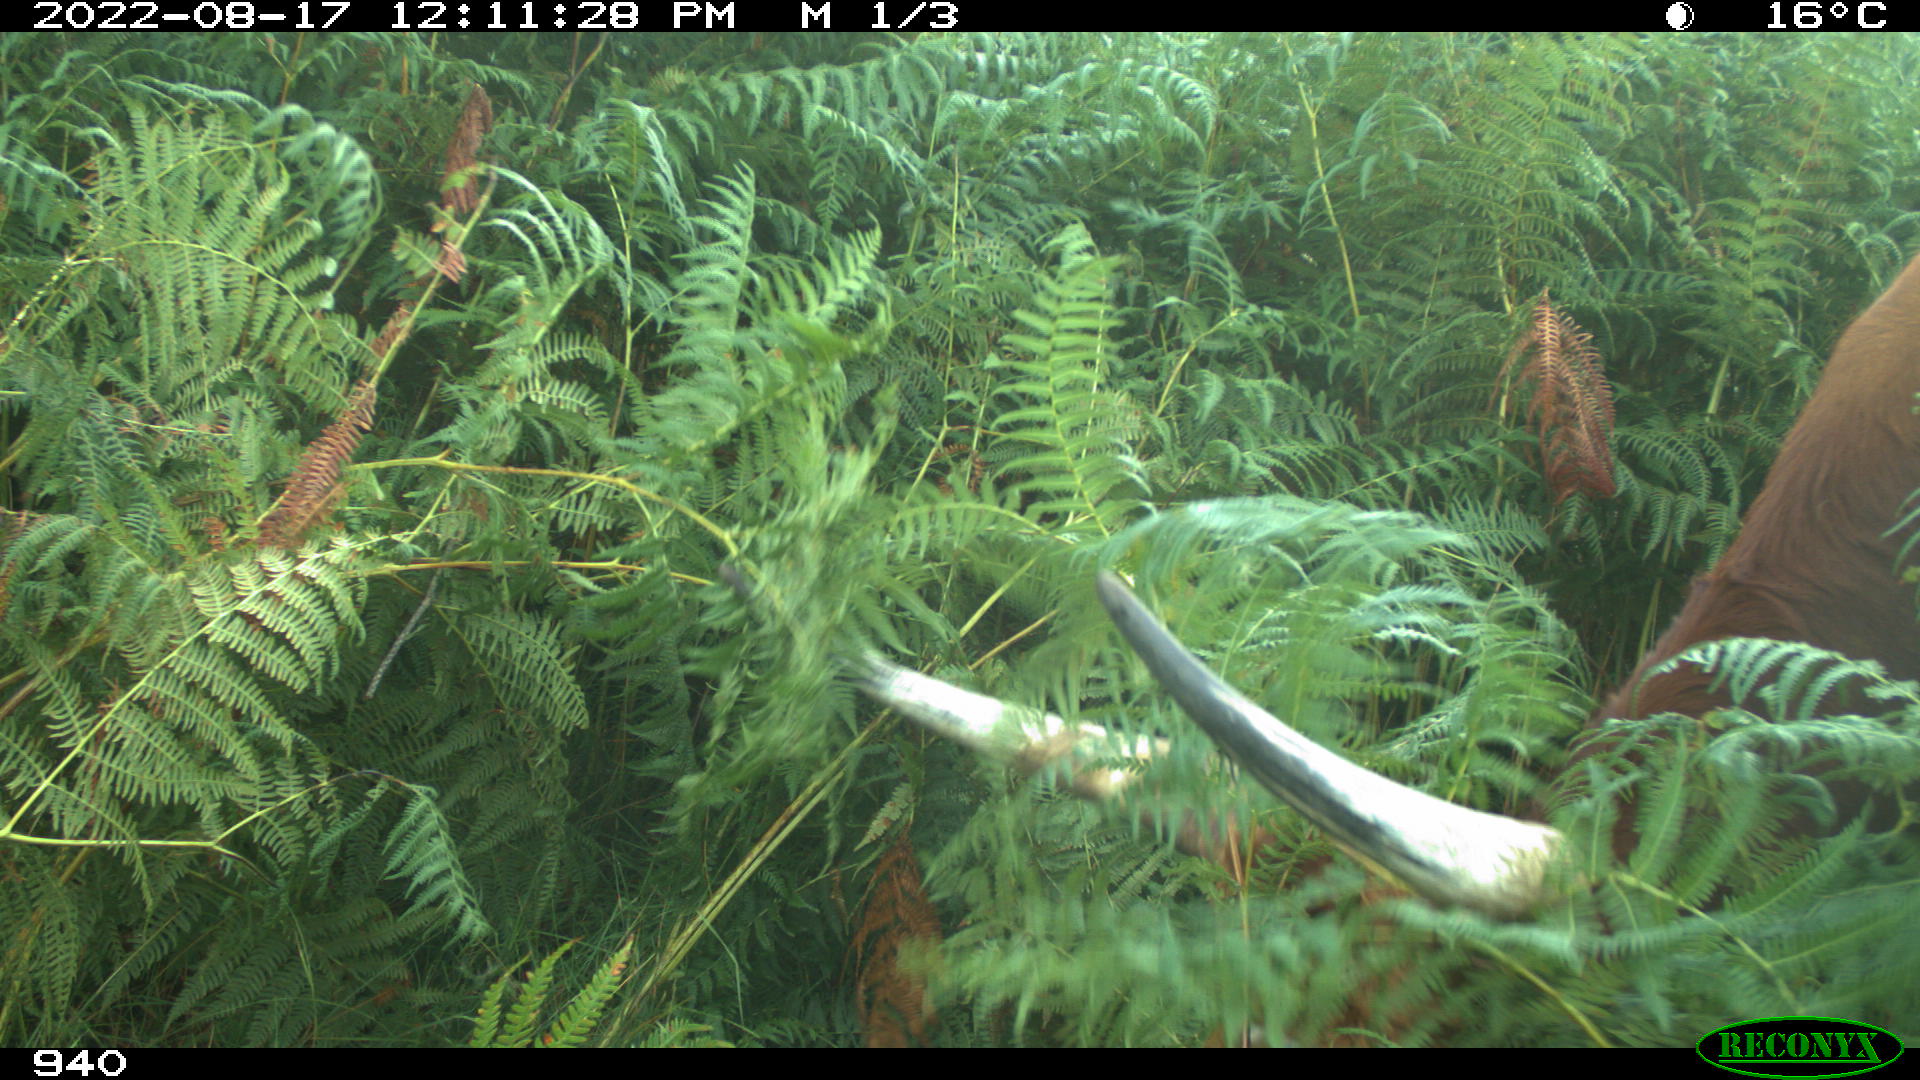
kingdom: Animalia
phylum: Chordata
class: Mammalia
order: Artiodactyla
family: Bovidae
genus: Bos
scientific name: Bos taurus
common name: Domesticated cattle
